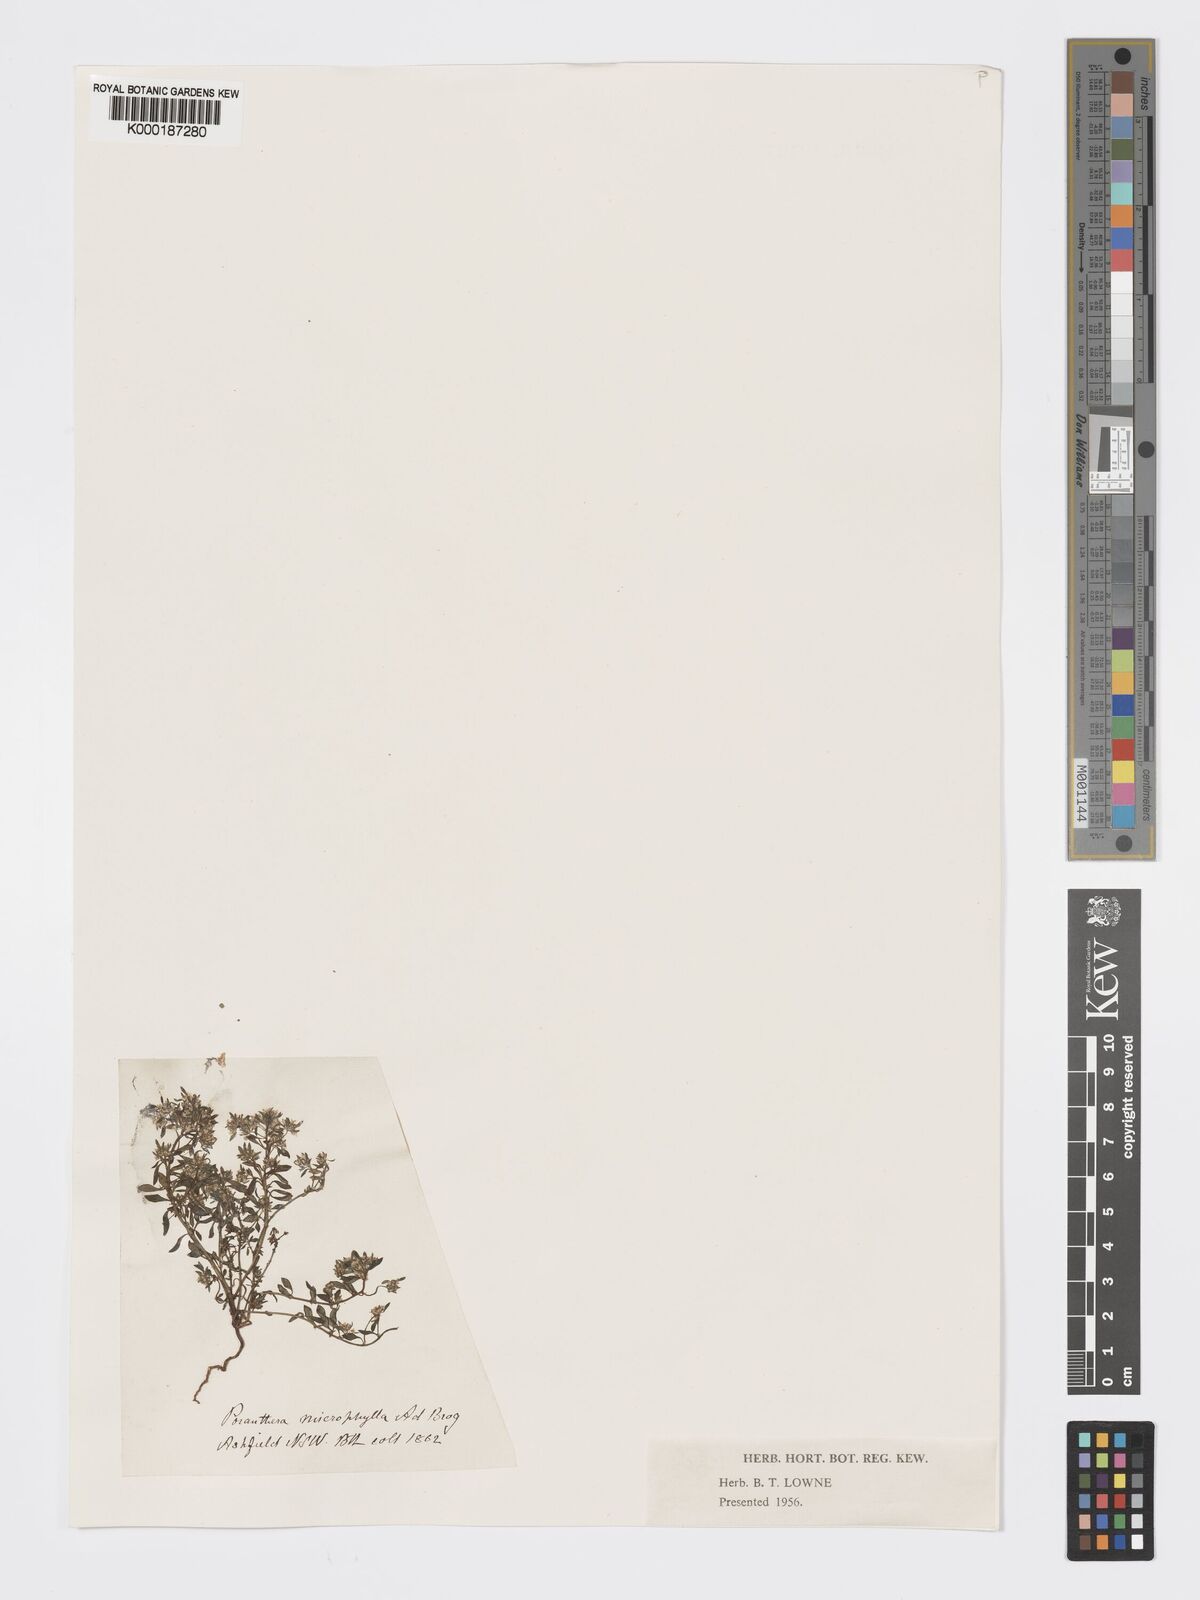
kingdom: Plantae
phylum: Tracheophyta
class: Magnoliopsida
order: Malpighiales
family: Phyllanthaceae
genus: Poranthera
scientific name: Poranthera microphylla
